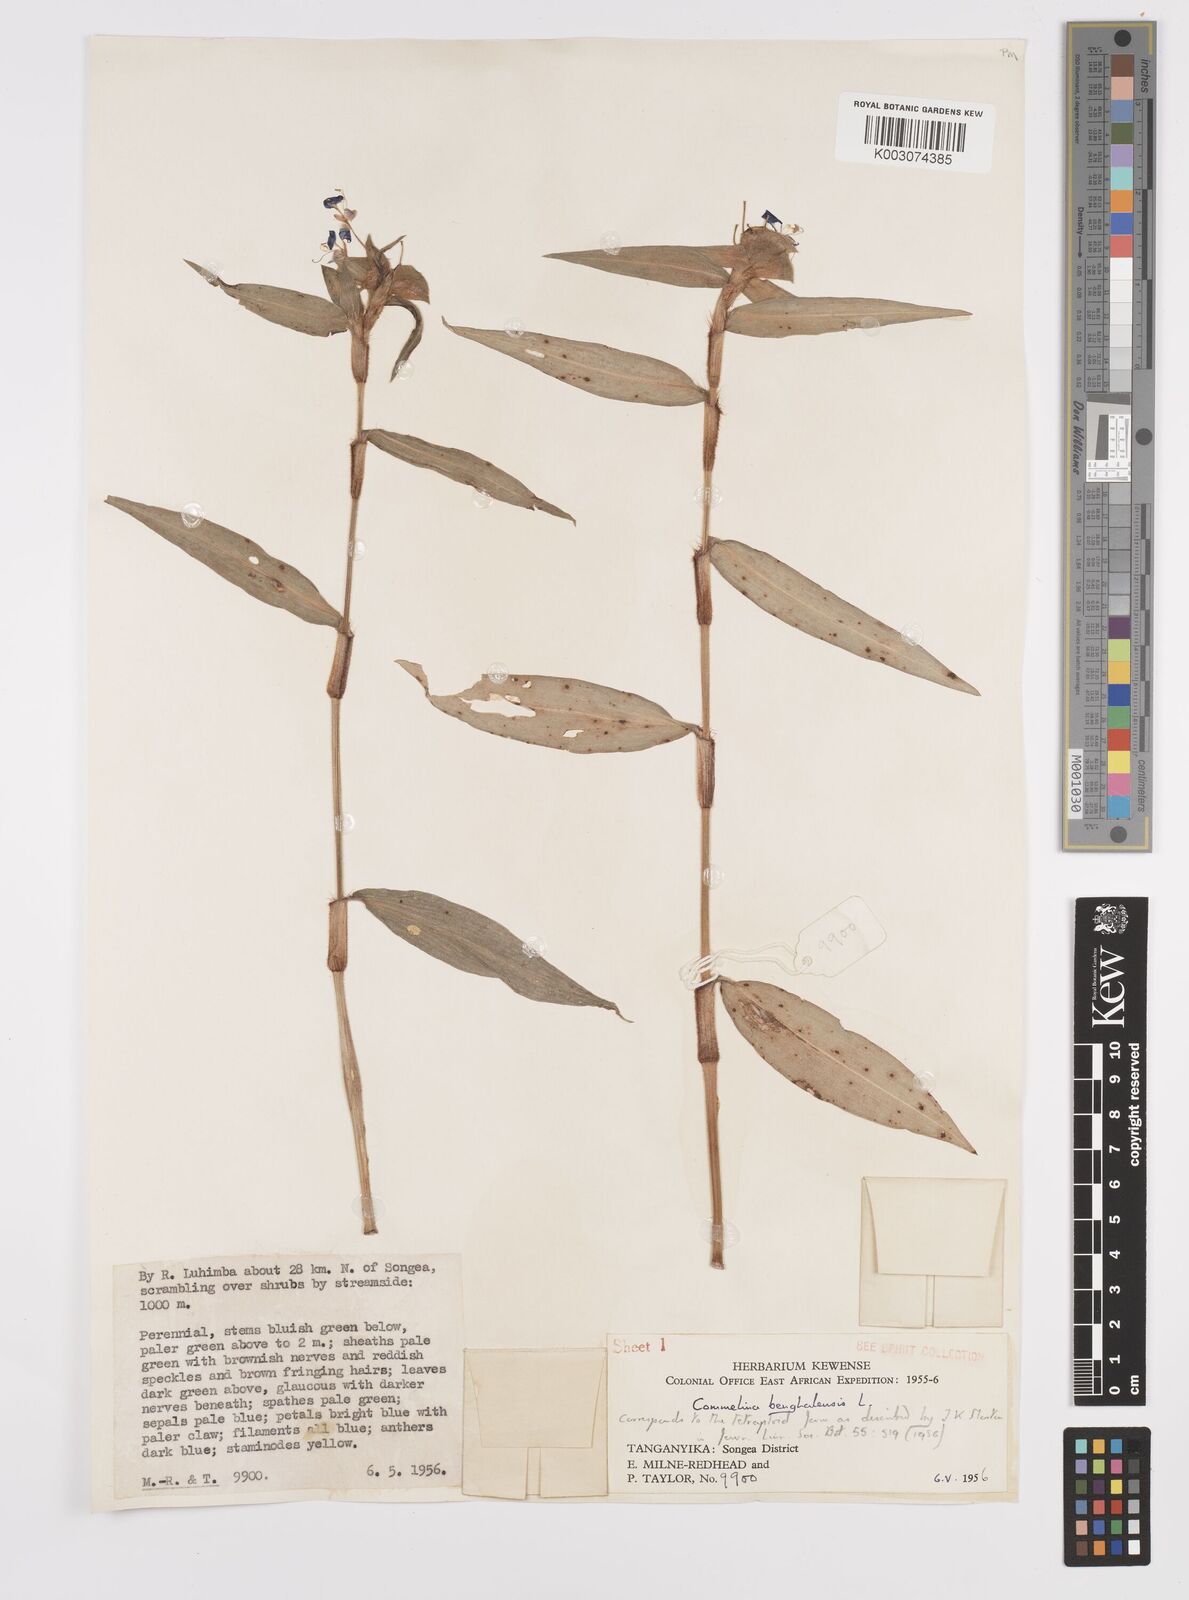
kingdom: Plantae
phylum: Tracheophyta
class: Liliopsida
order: Commelinales
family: Commelinaceae
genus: Commelina
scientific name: Commelina benghalensis
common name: Jio
